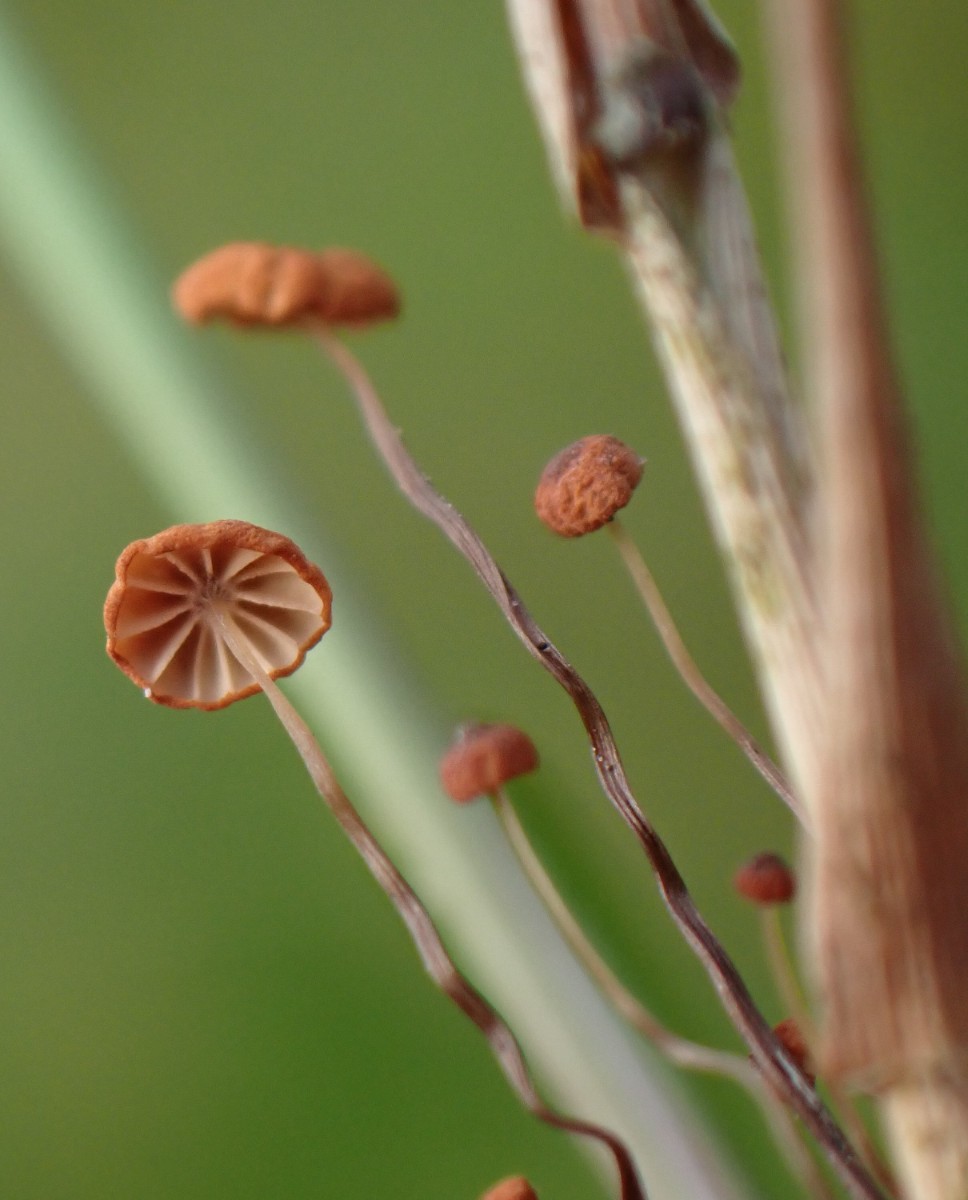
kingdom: Fungi
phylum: Basidiomycota
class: Agaricomycetes
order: Agaricales
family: Marasmiaceae
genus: Marasmius
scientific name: Marasmius curreyi
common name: teglrød bruskhat
